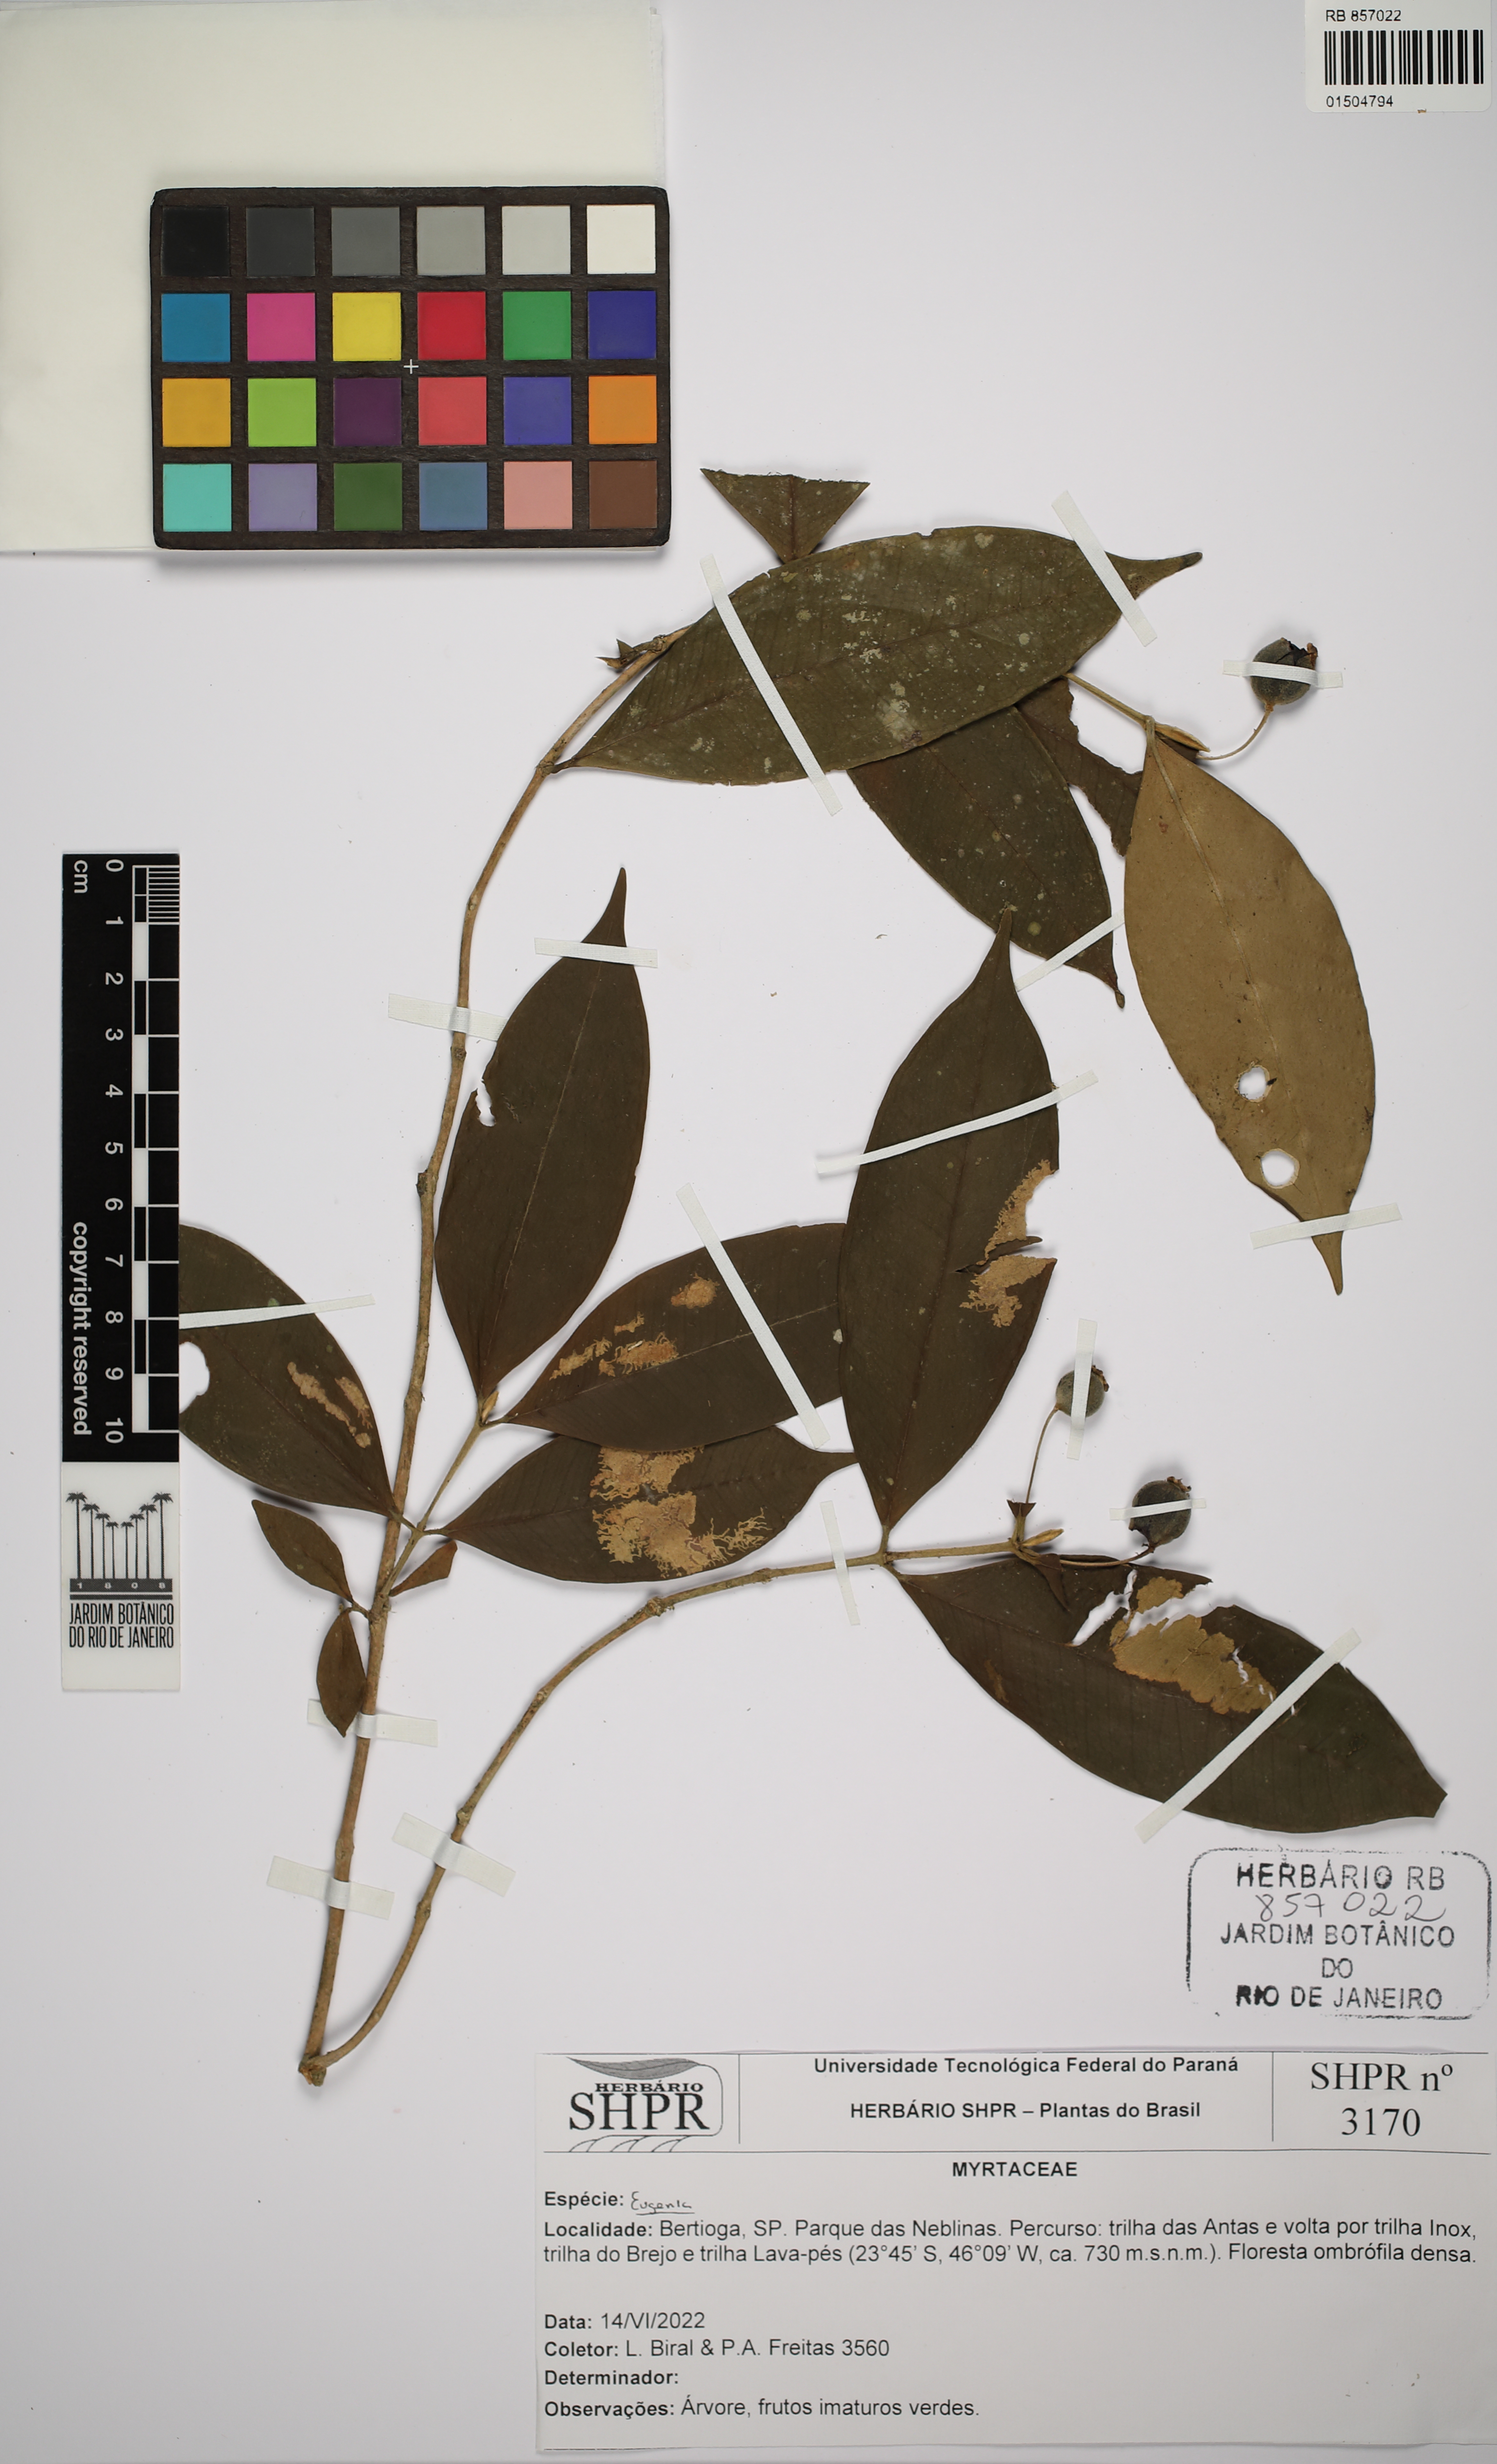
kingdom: Plantae
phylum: Tracheophyta
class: Magnoliopsida
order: Myrtales
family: Myrtaceae
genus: Eugenia
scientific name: Eugenia
